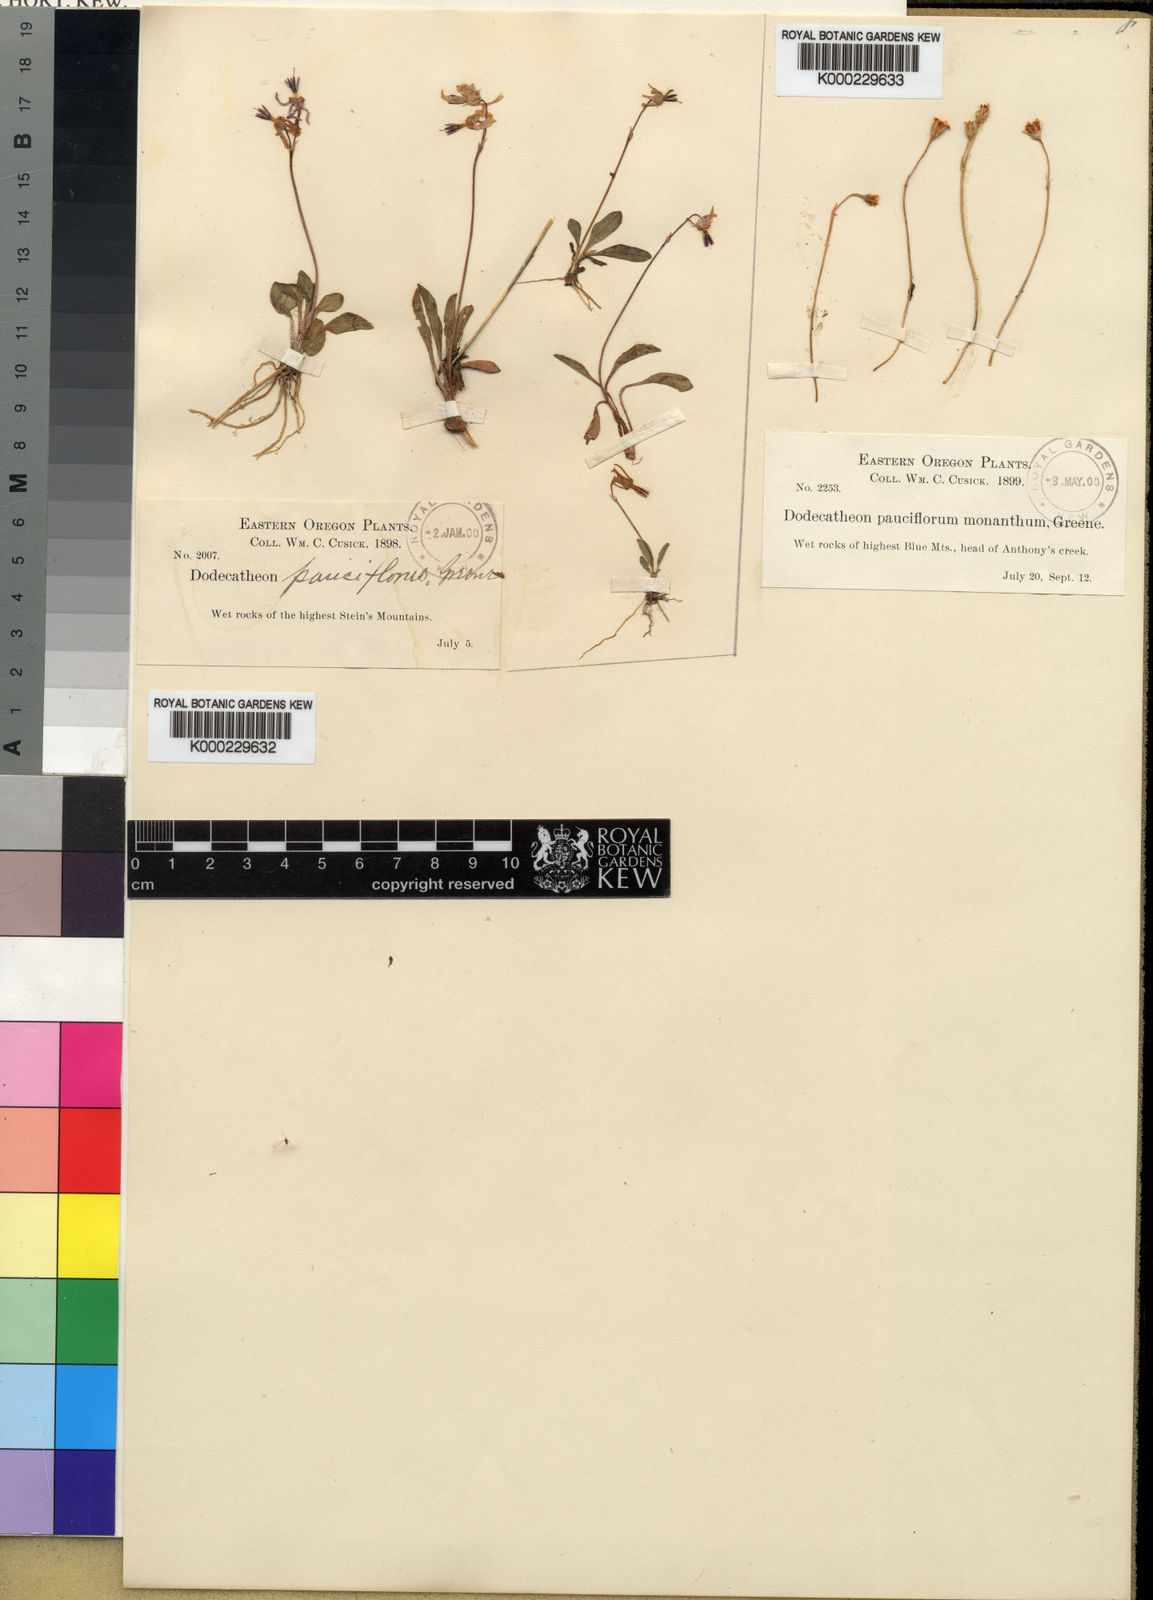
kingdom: Plantae
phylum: Tracheophyta
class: Magnoliopsida
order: Ericales
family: Primulaceae
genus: Dodecatheon
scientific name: Dodecatheon pulchellum
